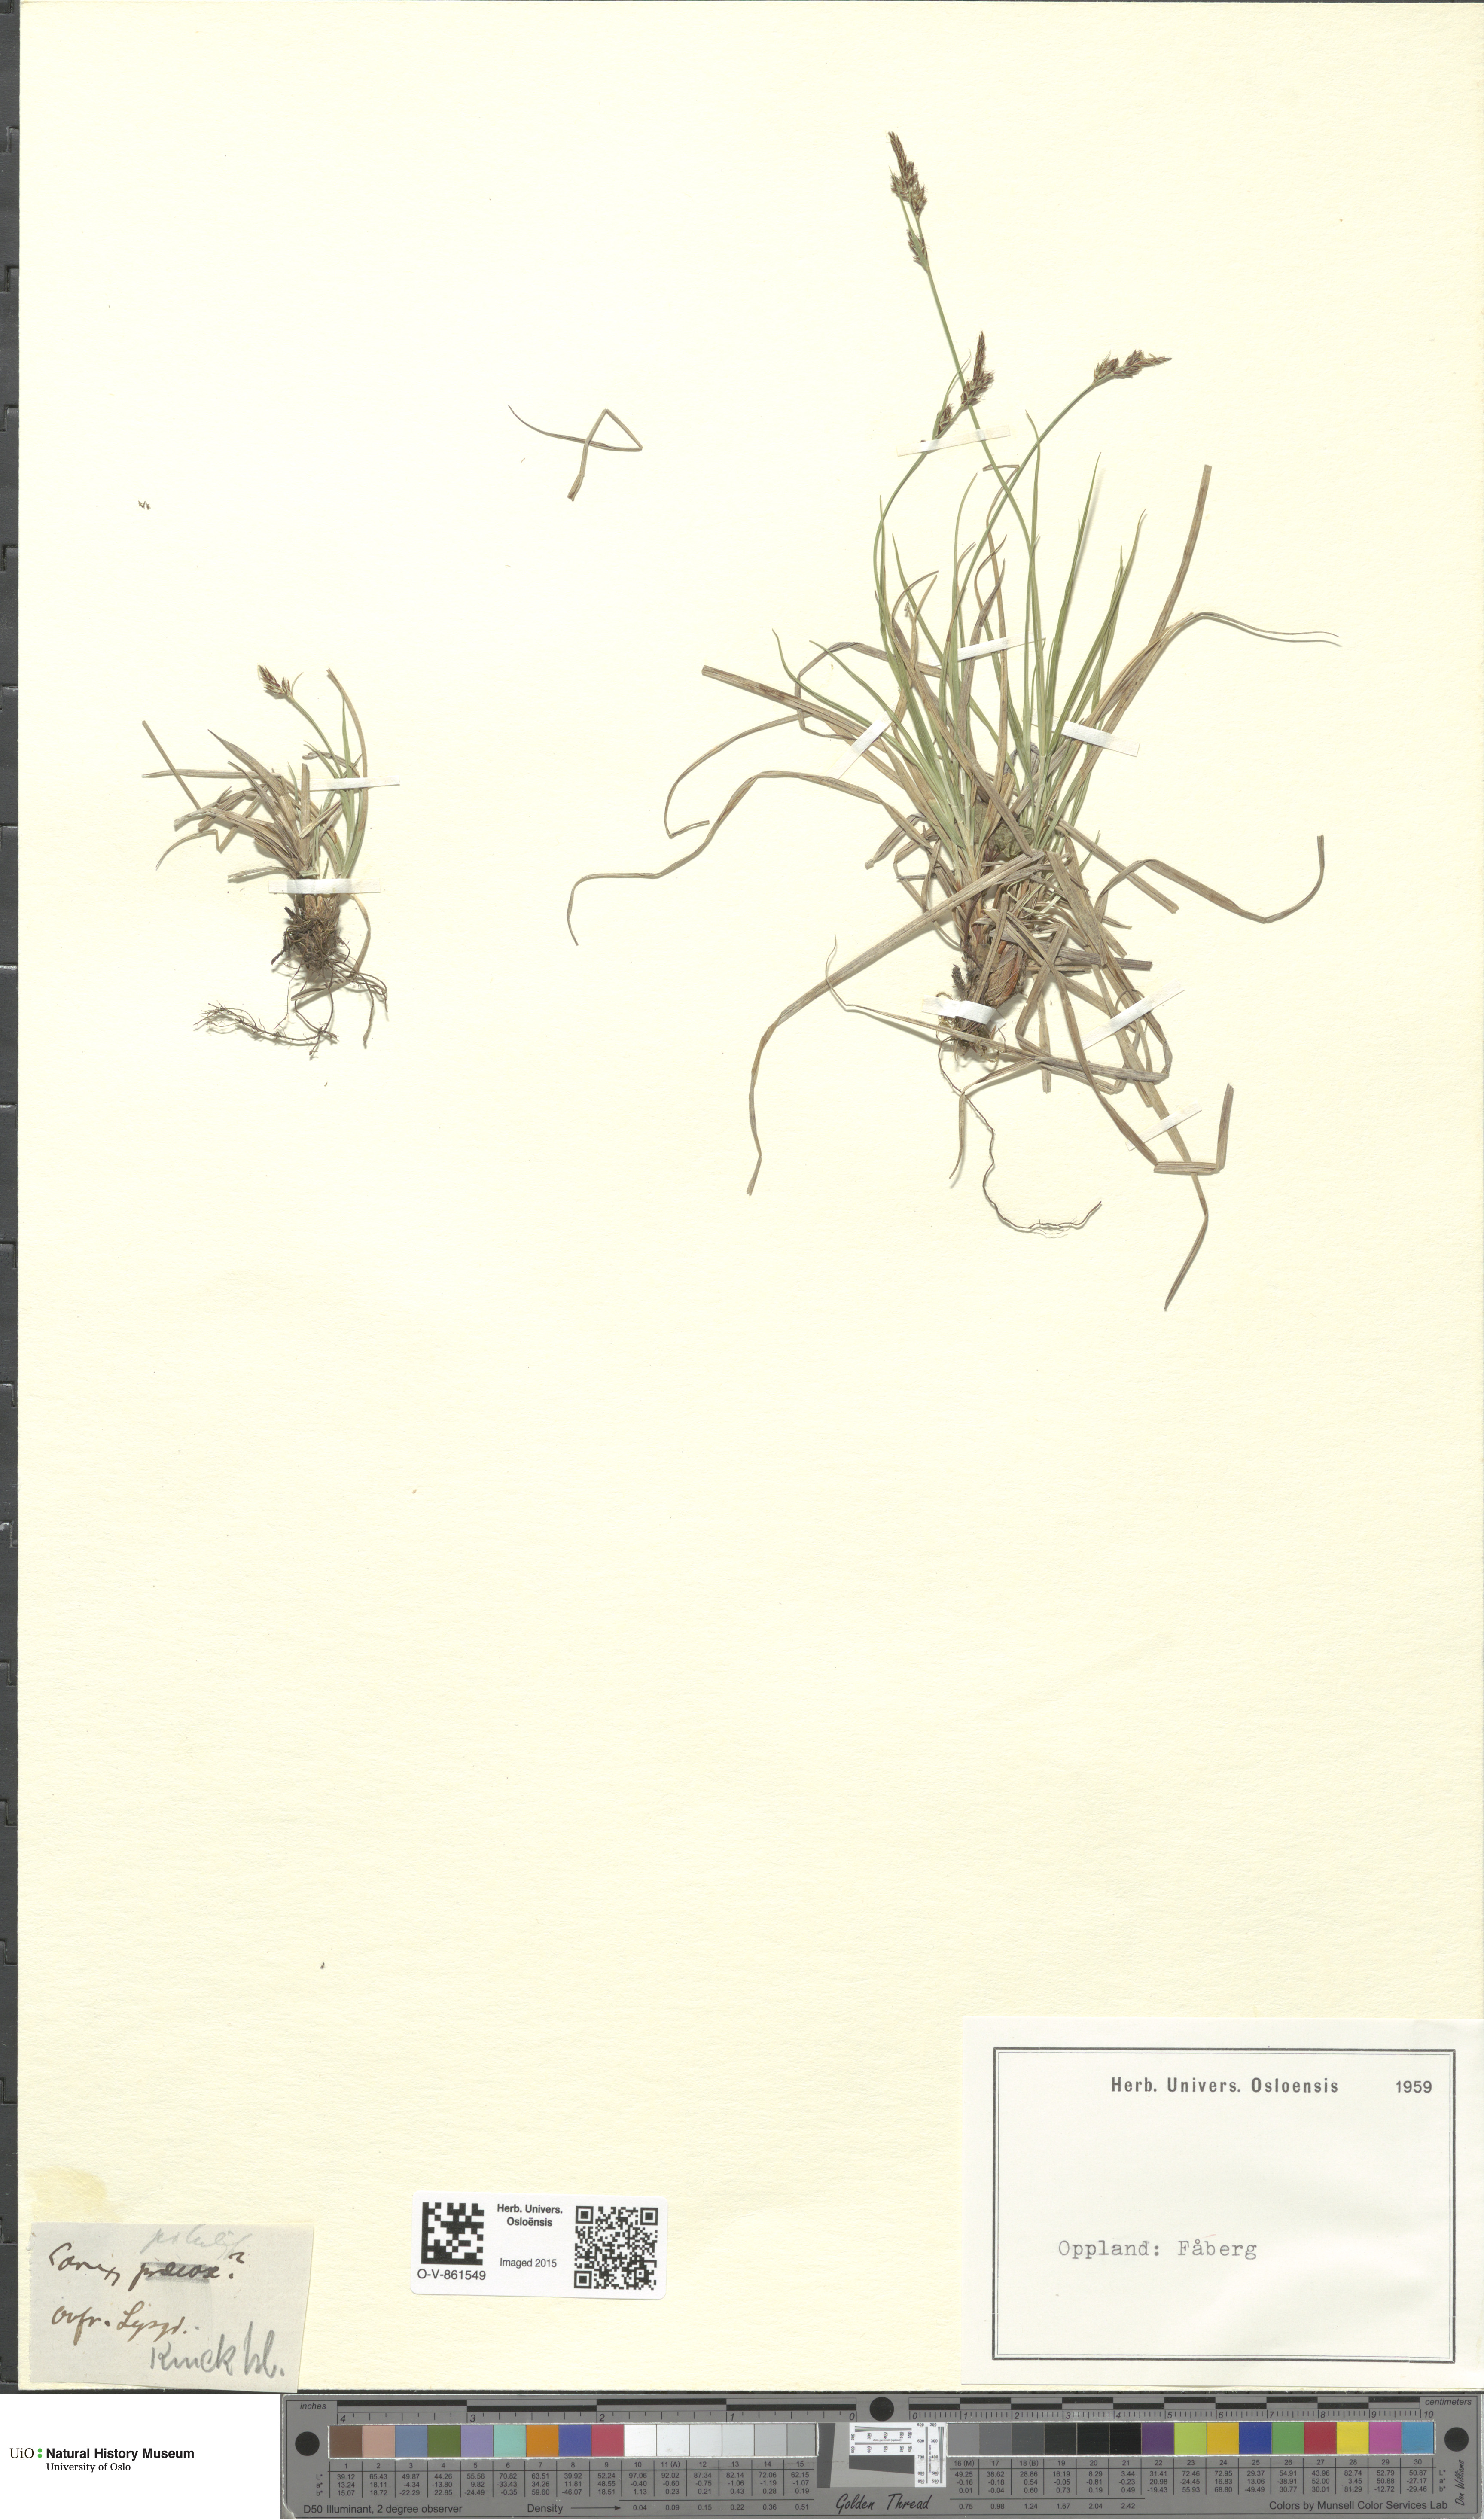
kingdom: Plantae
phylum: Tracheophyta
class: Liliopsida
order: Poales
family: Cyperaceae
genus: Carex
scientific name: Carex pilulifera
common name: Pill sedge
